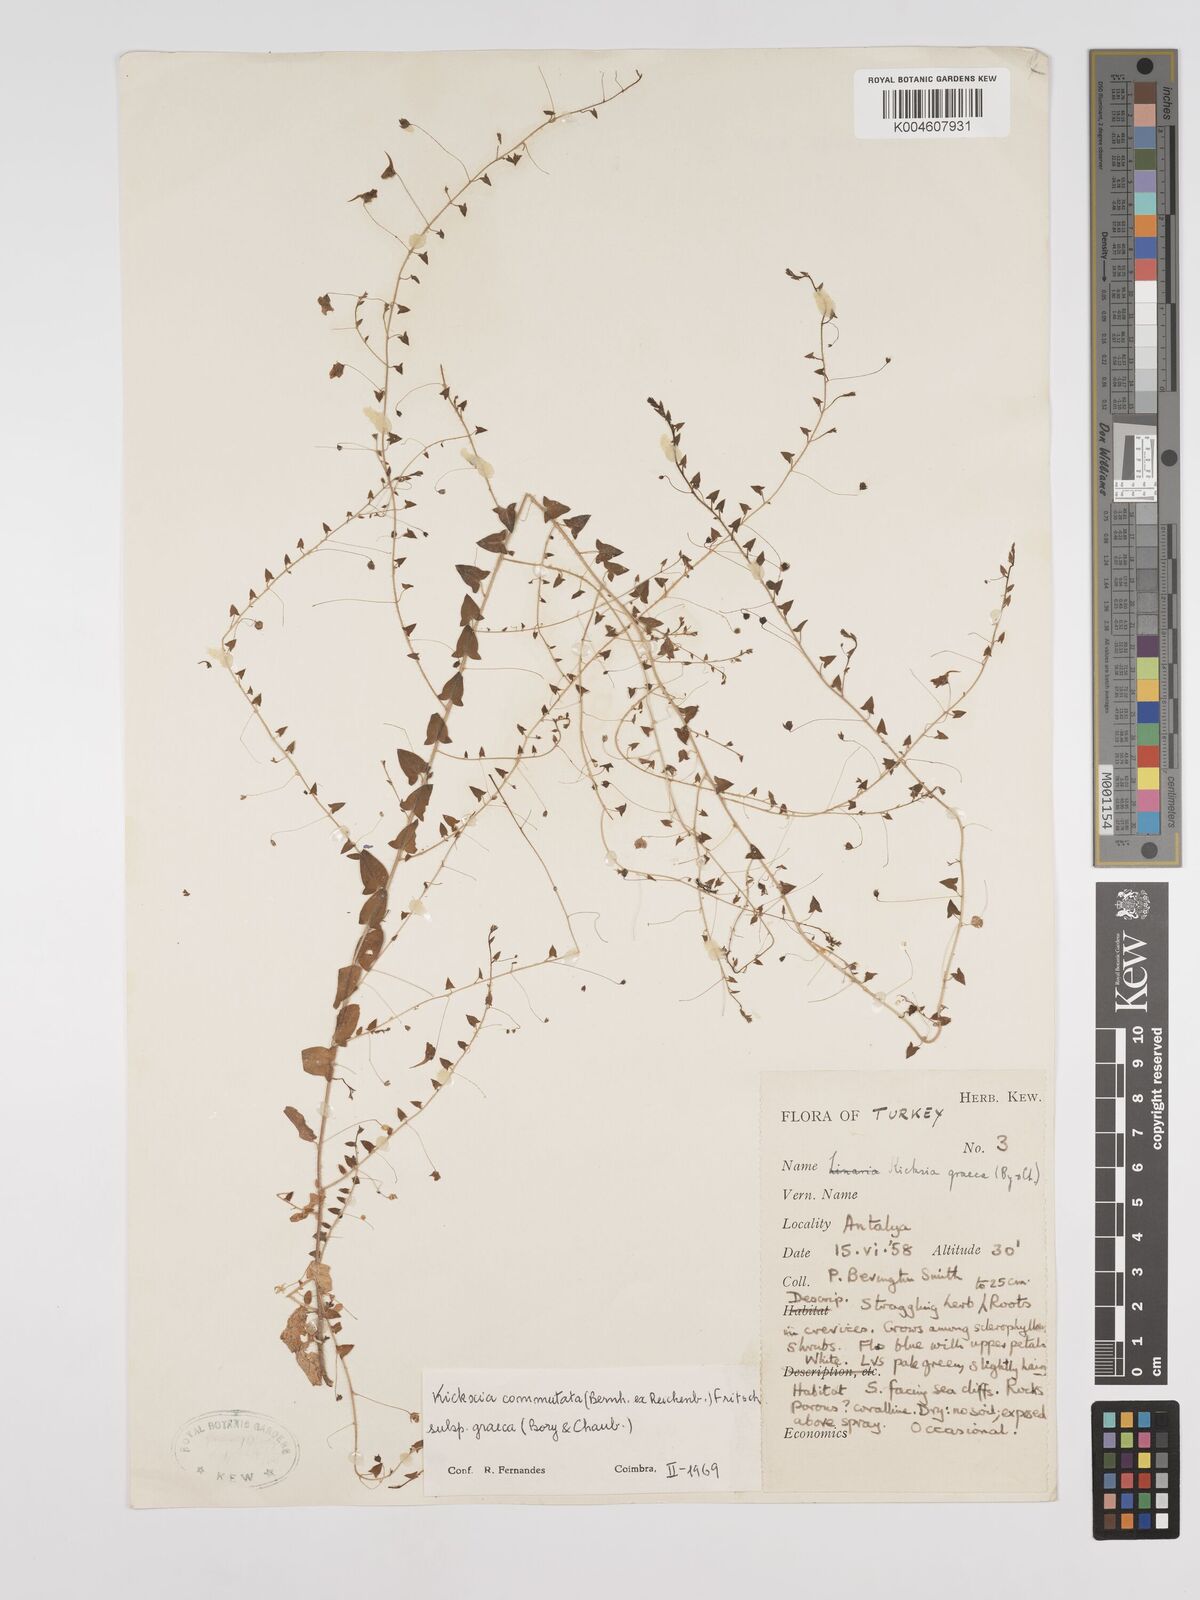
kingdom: Plantae
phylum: Tracheophyta
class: Magnoliopsida
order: Lamiales
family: Plantaginaceae
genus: Kickxia
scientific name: Kickxia commutata
